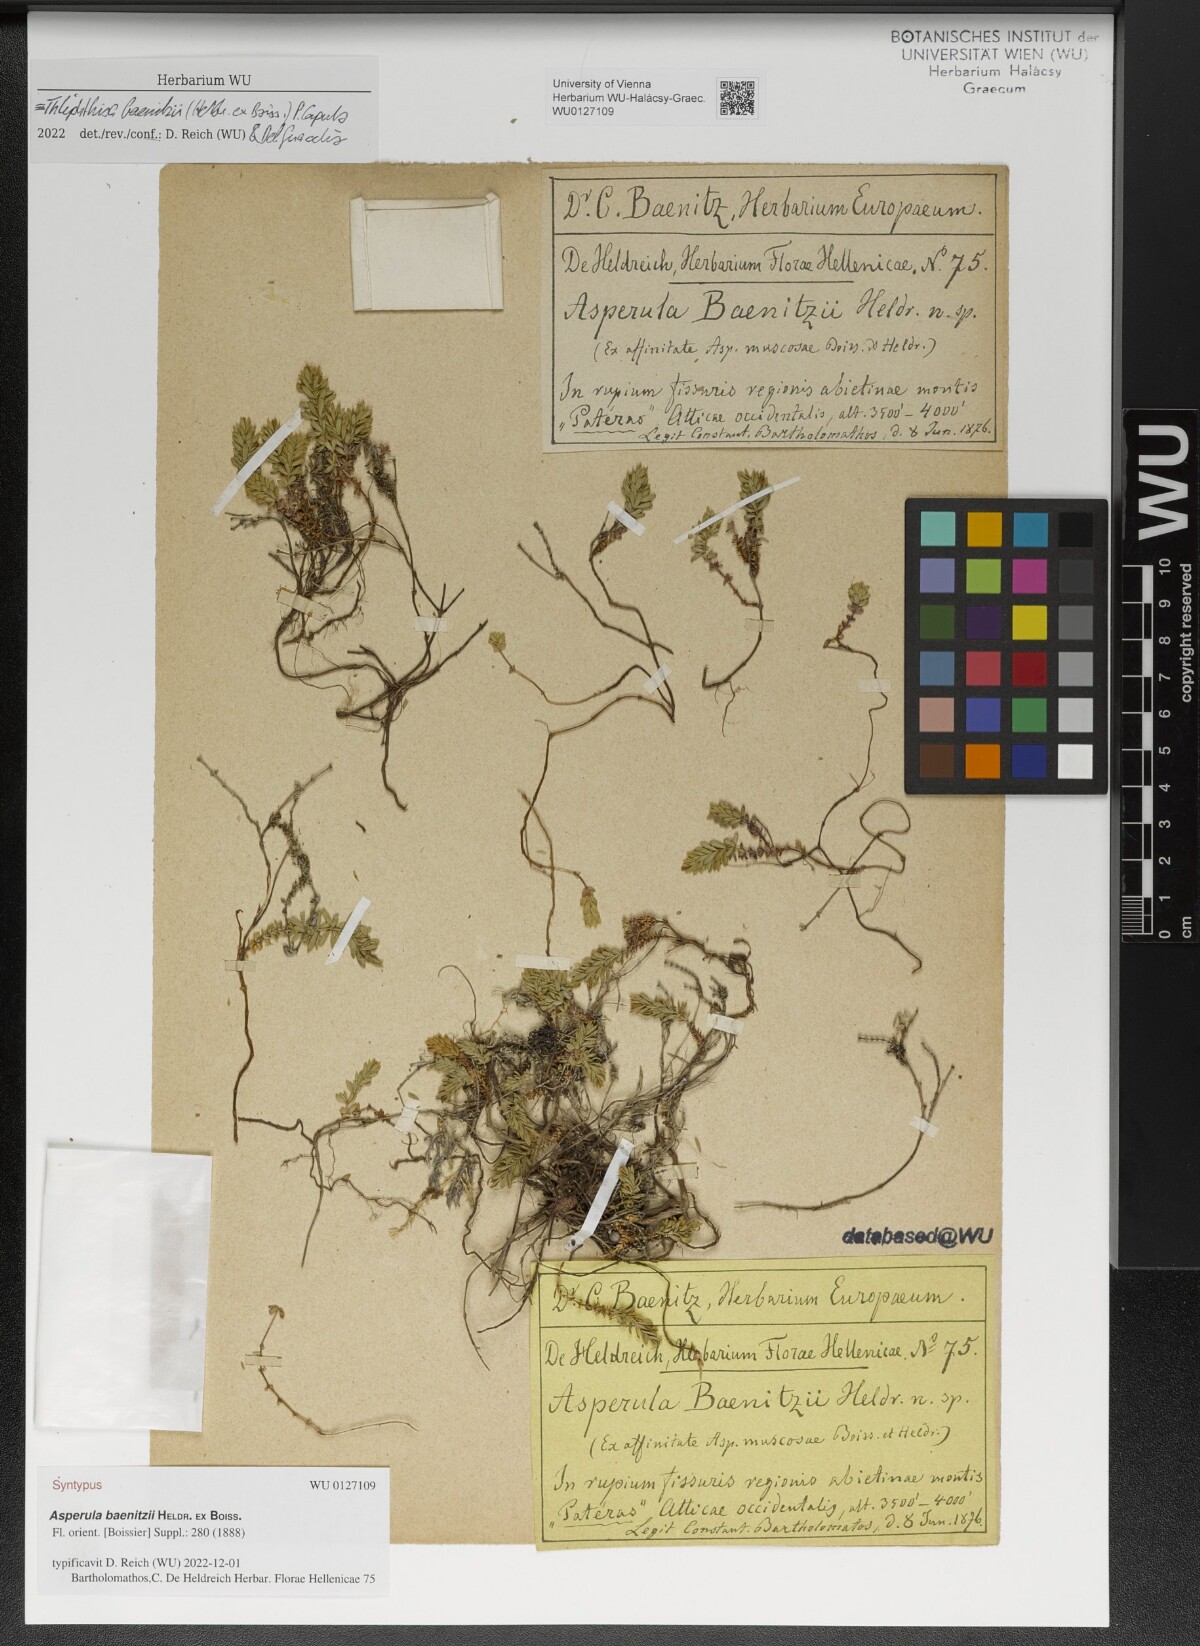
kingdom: Plantae
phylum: Tracheophyta
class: Magnoliopsida
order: Gentianales
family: Rubiaceae
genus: Thliphthisa
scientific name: Thliphthisa baenitzii
